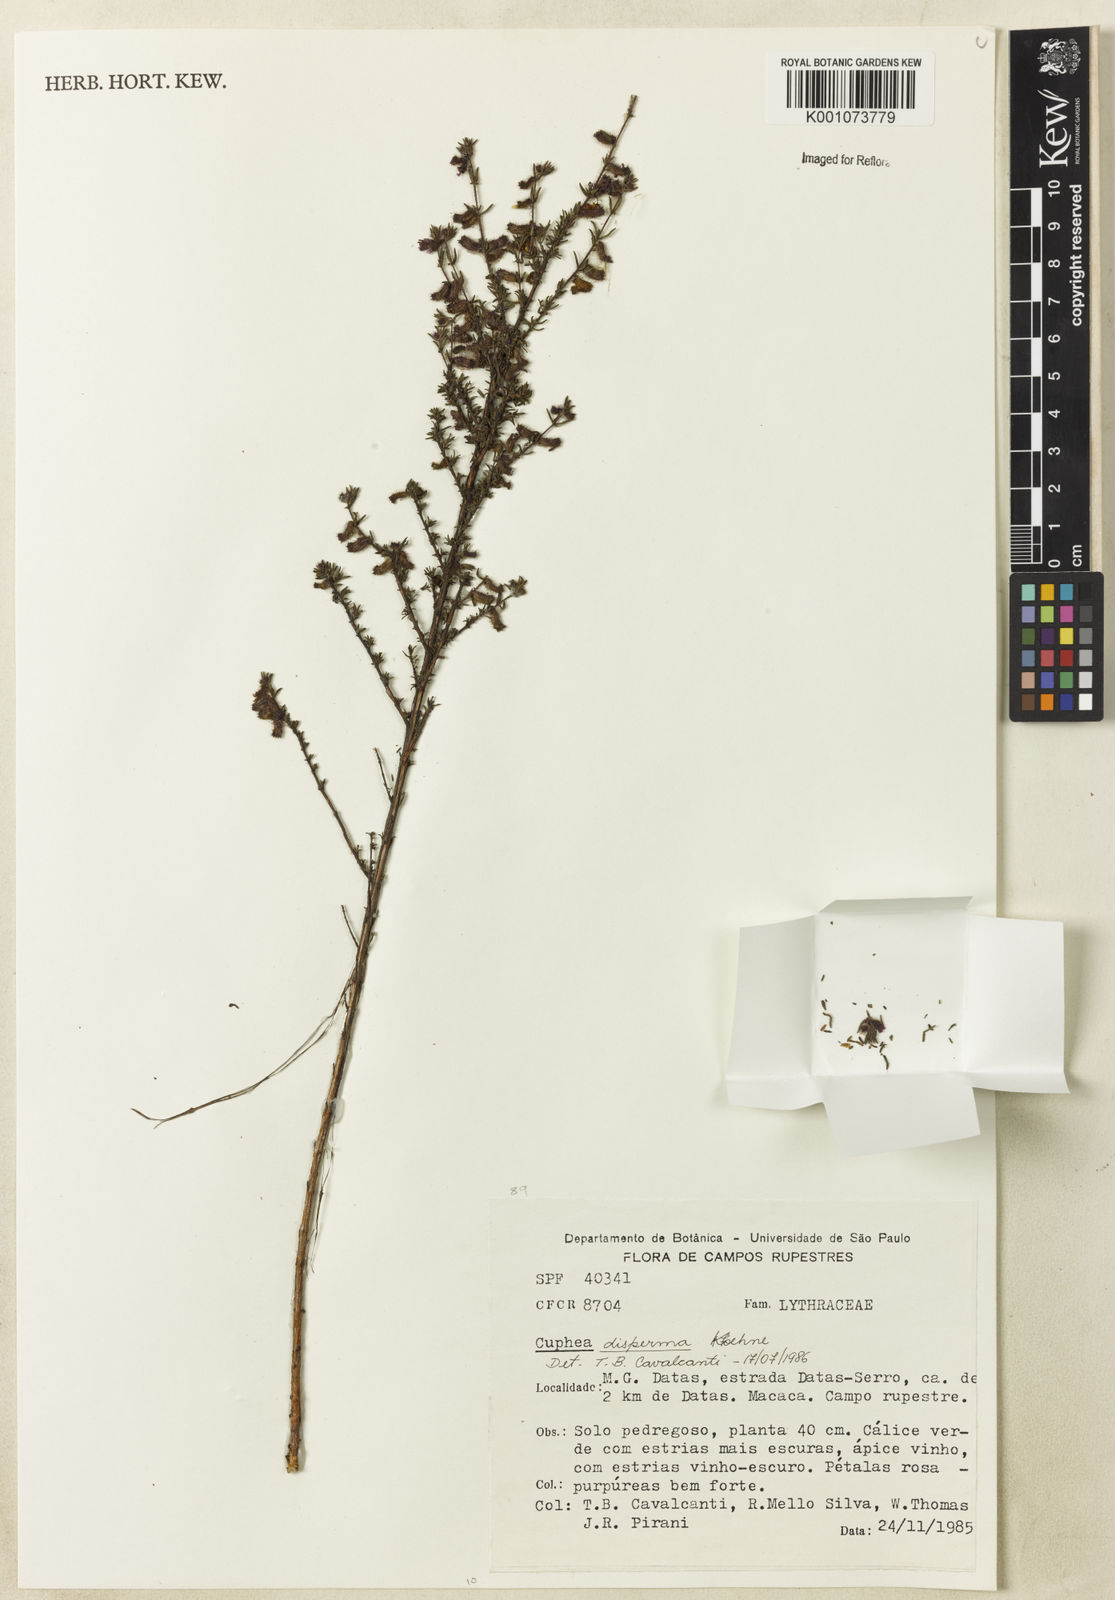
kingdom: Plantae
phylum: Tracheophyta
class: Magnoliopsida
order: Myrtales
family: Lythraceae
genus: Cuphea
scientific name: Cuphea disperma
